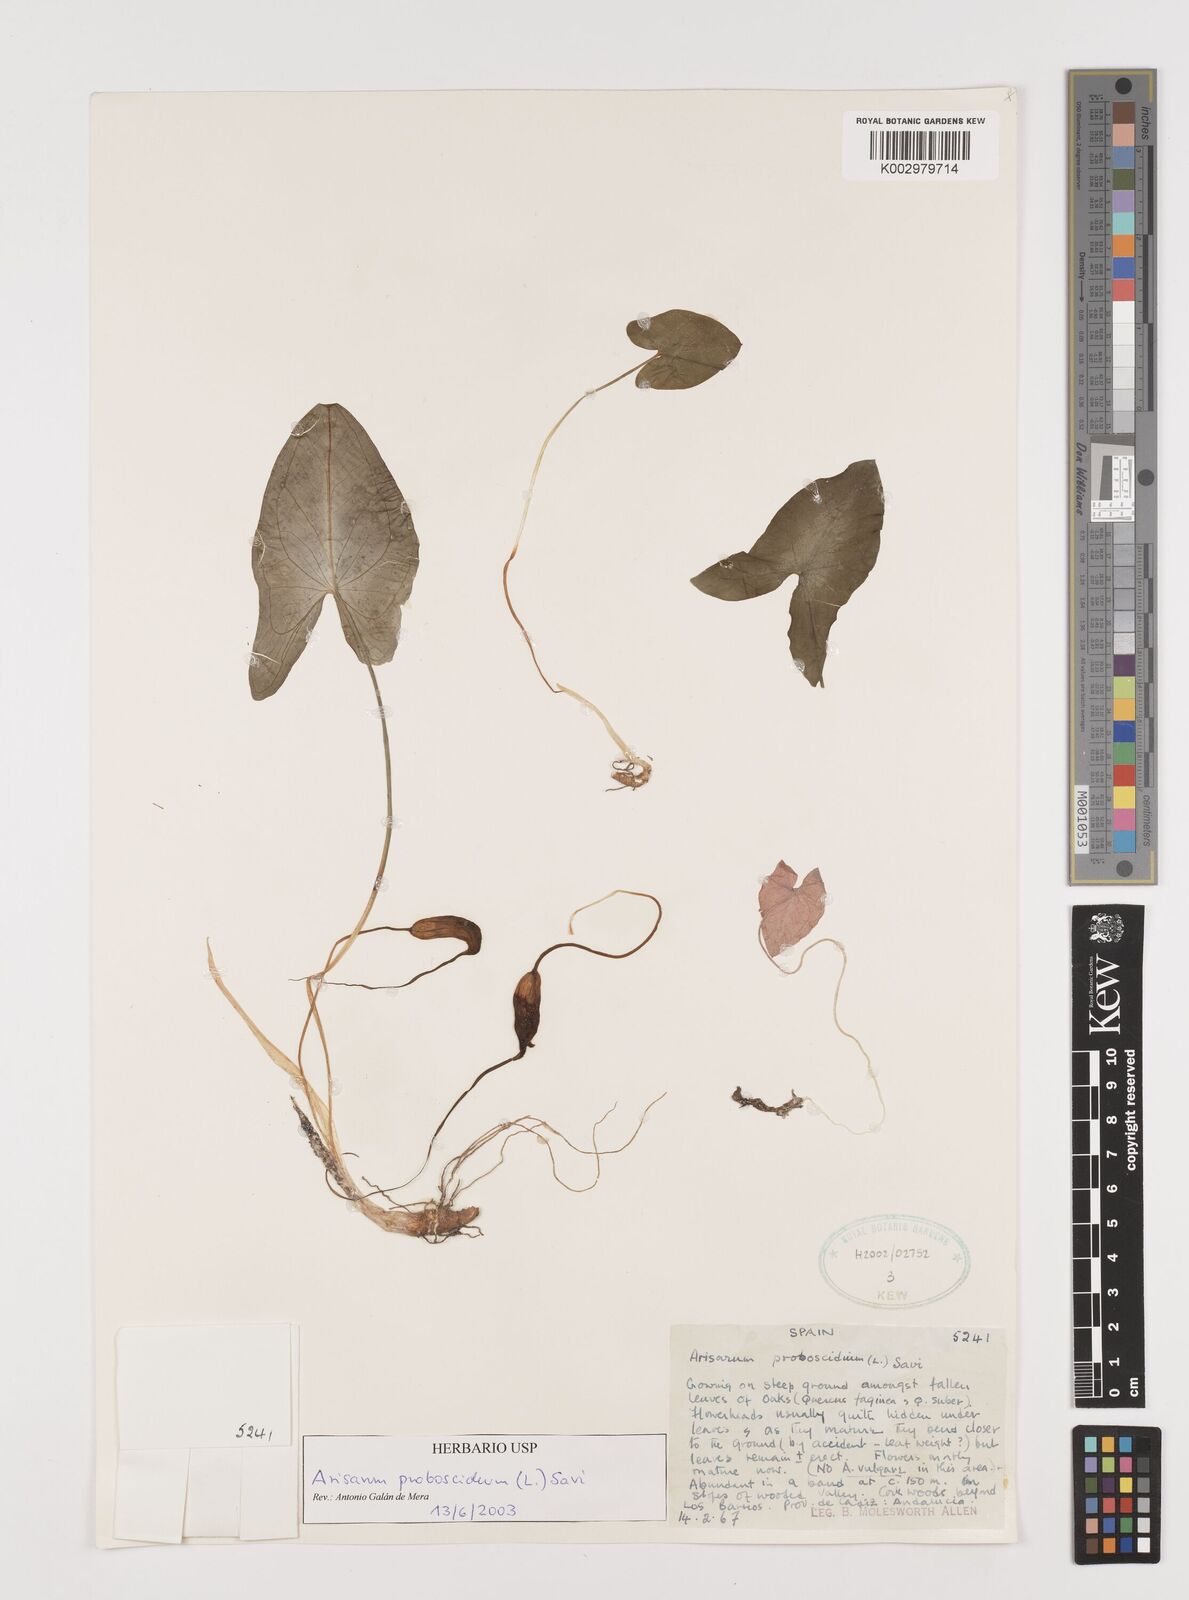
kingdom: Plantae
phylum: Tracheophyta
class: Liliopsida
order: Alismatales
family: Araceae
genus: Arisarum
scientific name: Arisarum proboscideum
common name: Mousetailplant
